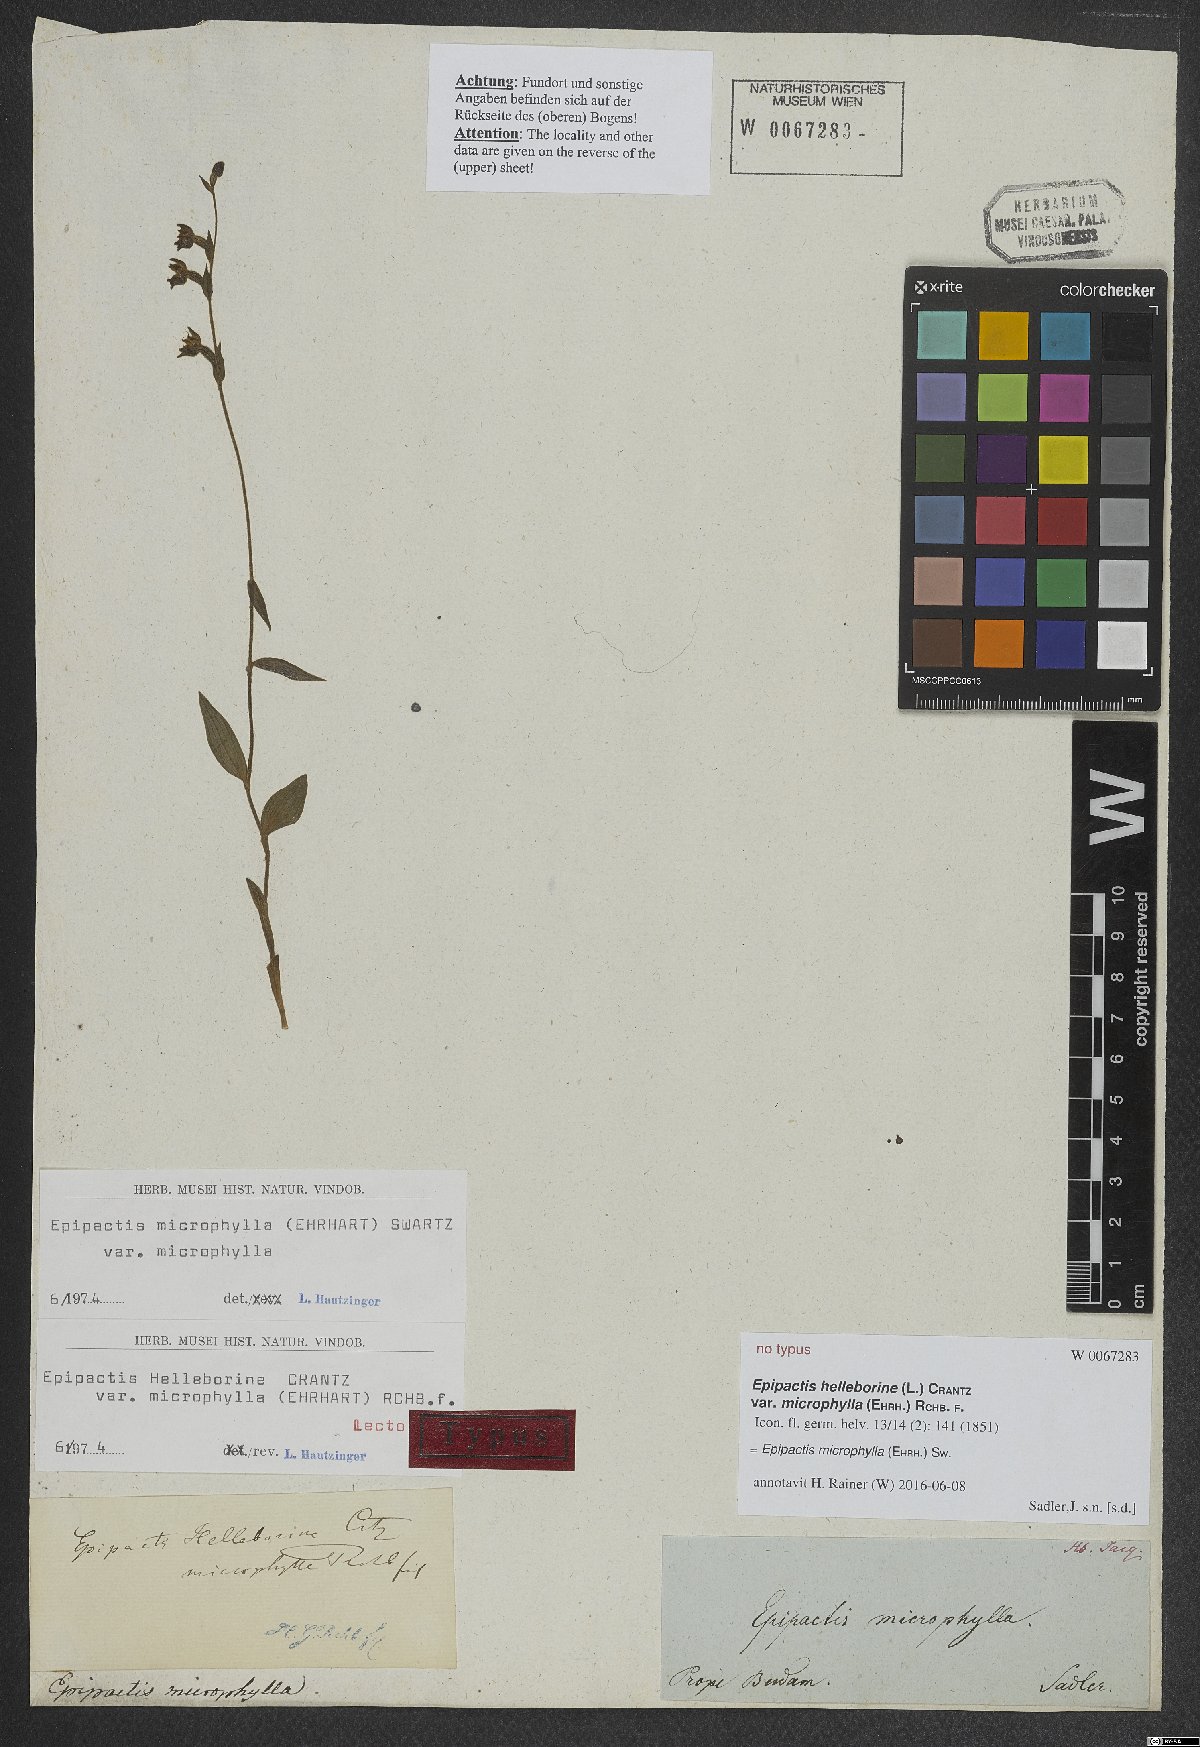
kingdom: Plantae
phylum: Tracheophyta
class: Liliopsida
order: Asparagales
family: Orchidaceae
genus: Epipactis
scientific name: Epipactis microphylla
